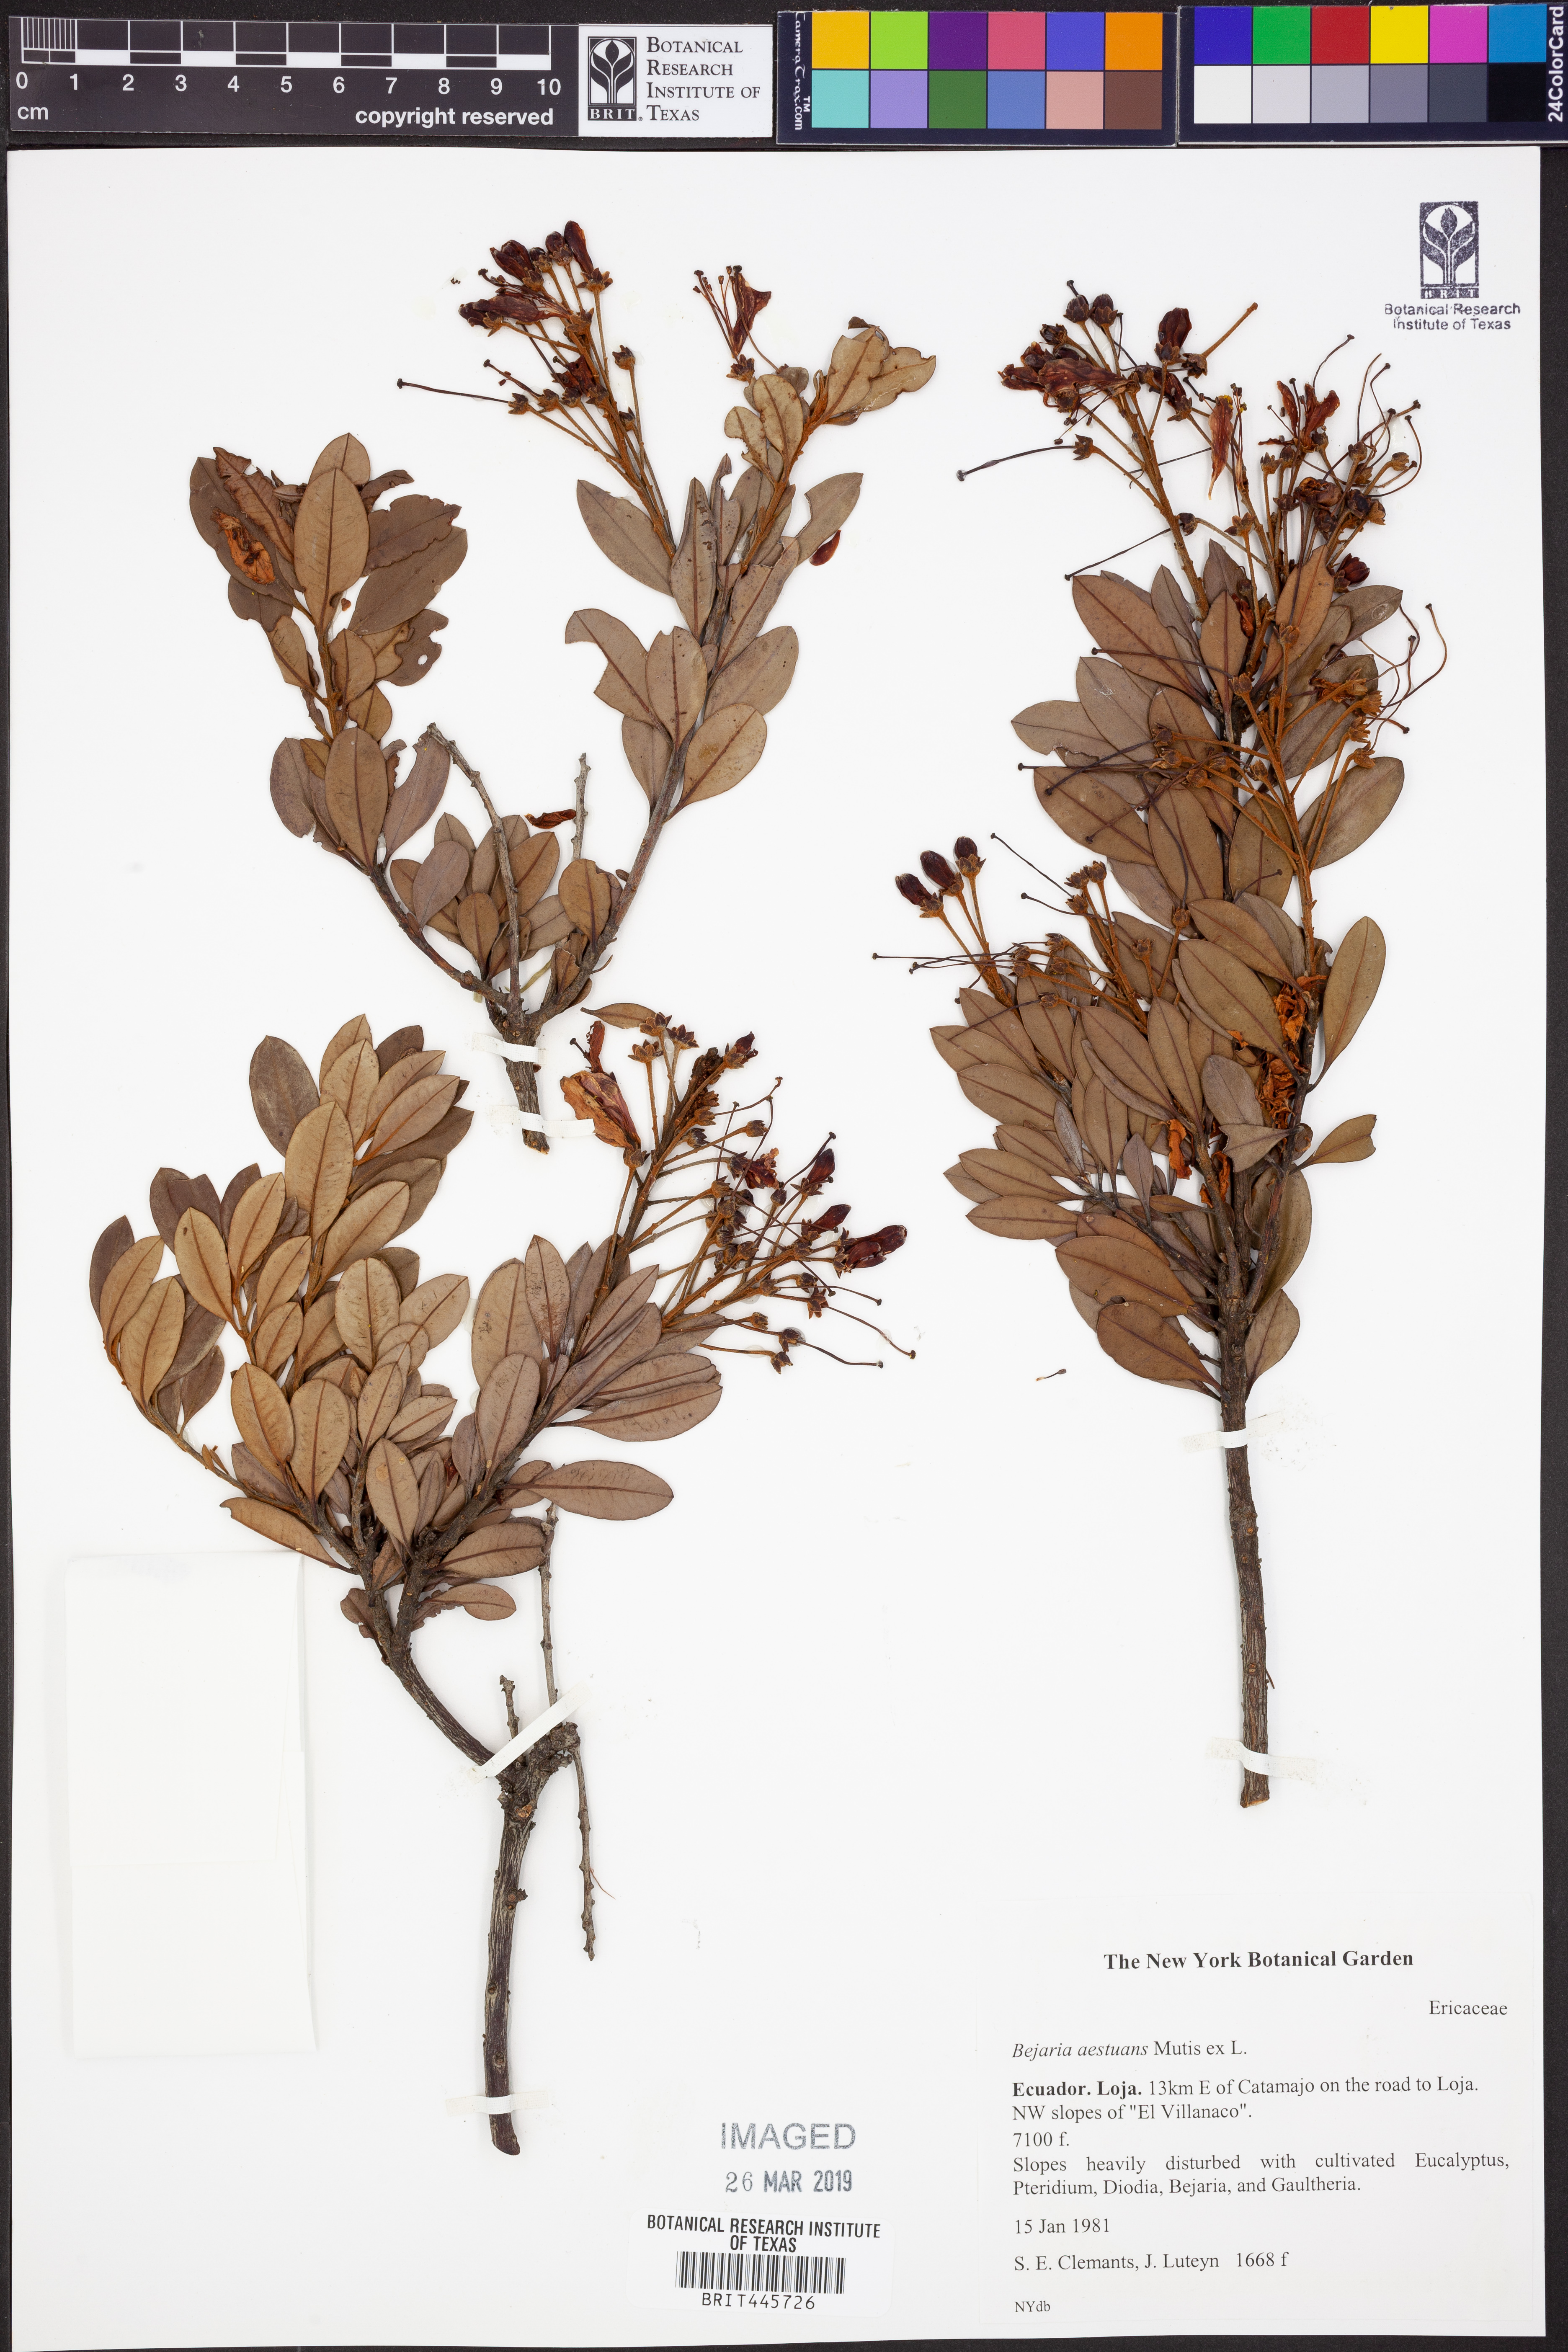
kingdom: Plantae
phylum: Tracheophyta
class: Magnoliopsida
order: Ericales
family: Ericaceae
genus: Bejaria
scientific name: Bejaria aestuans
